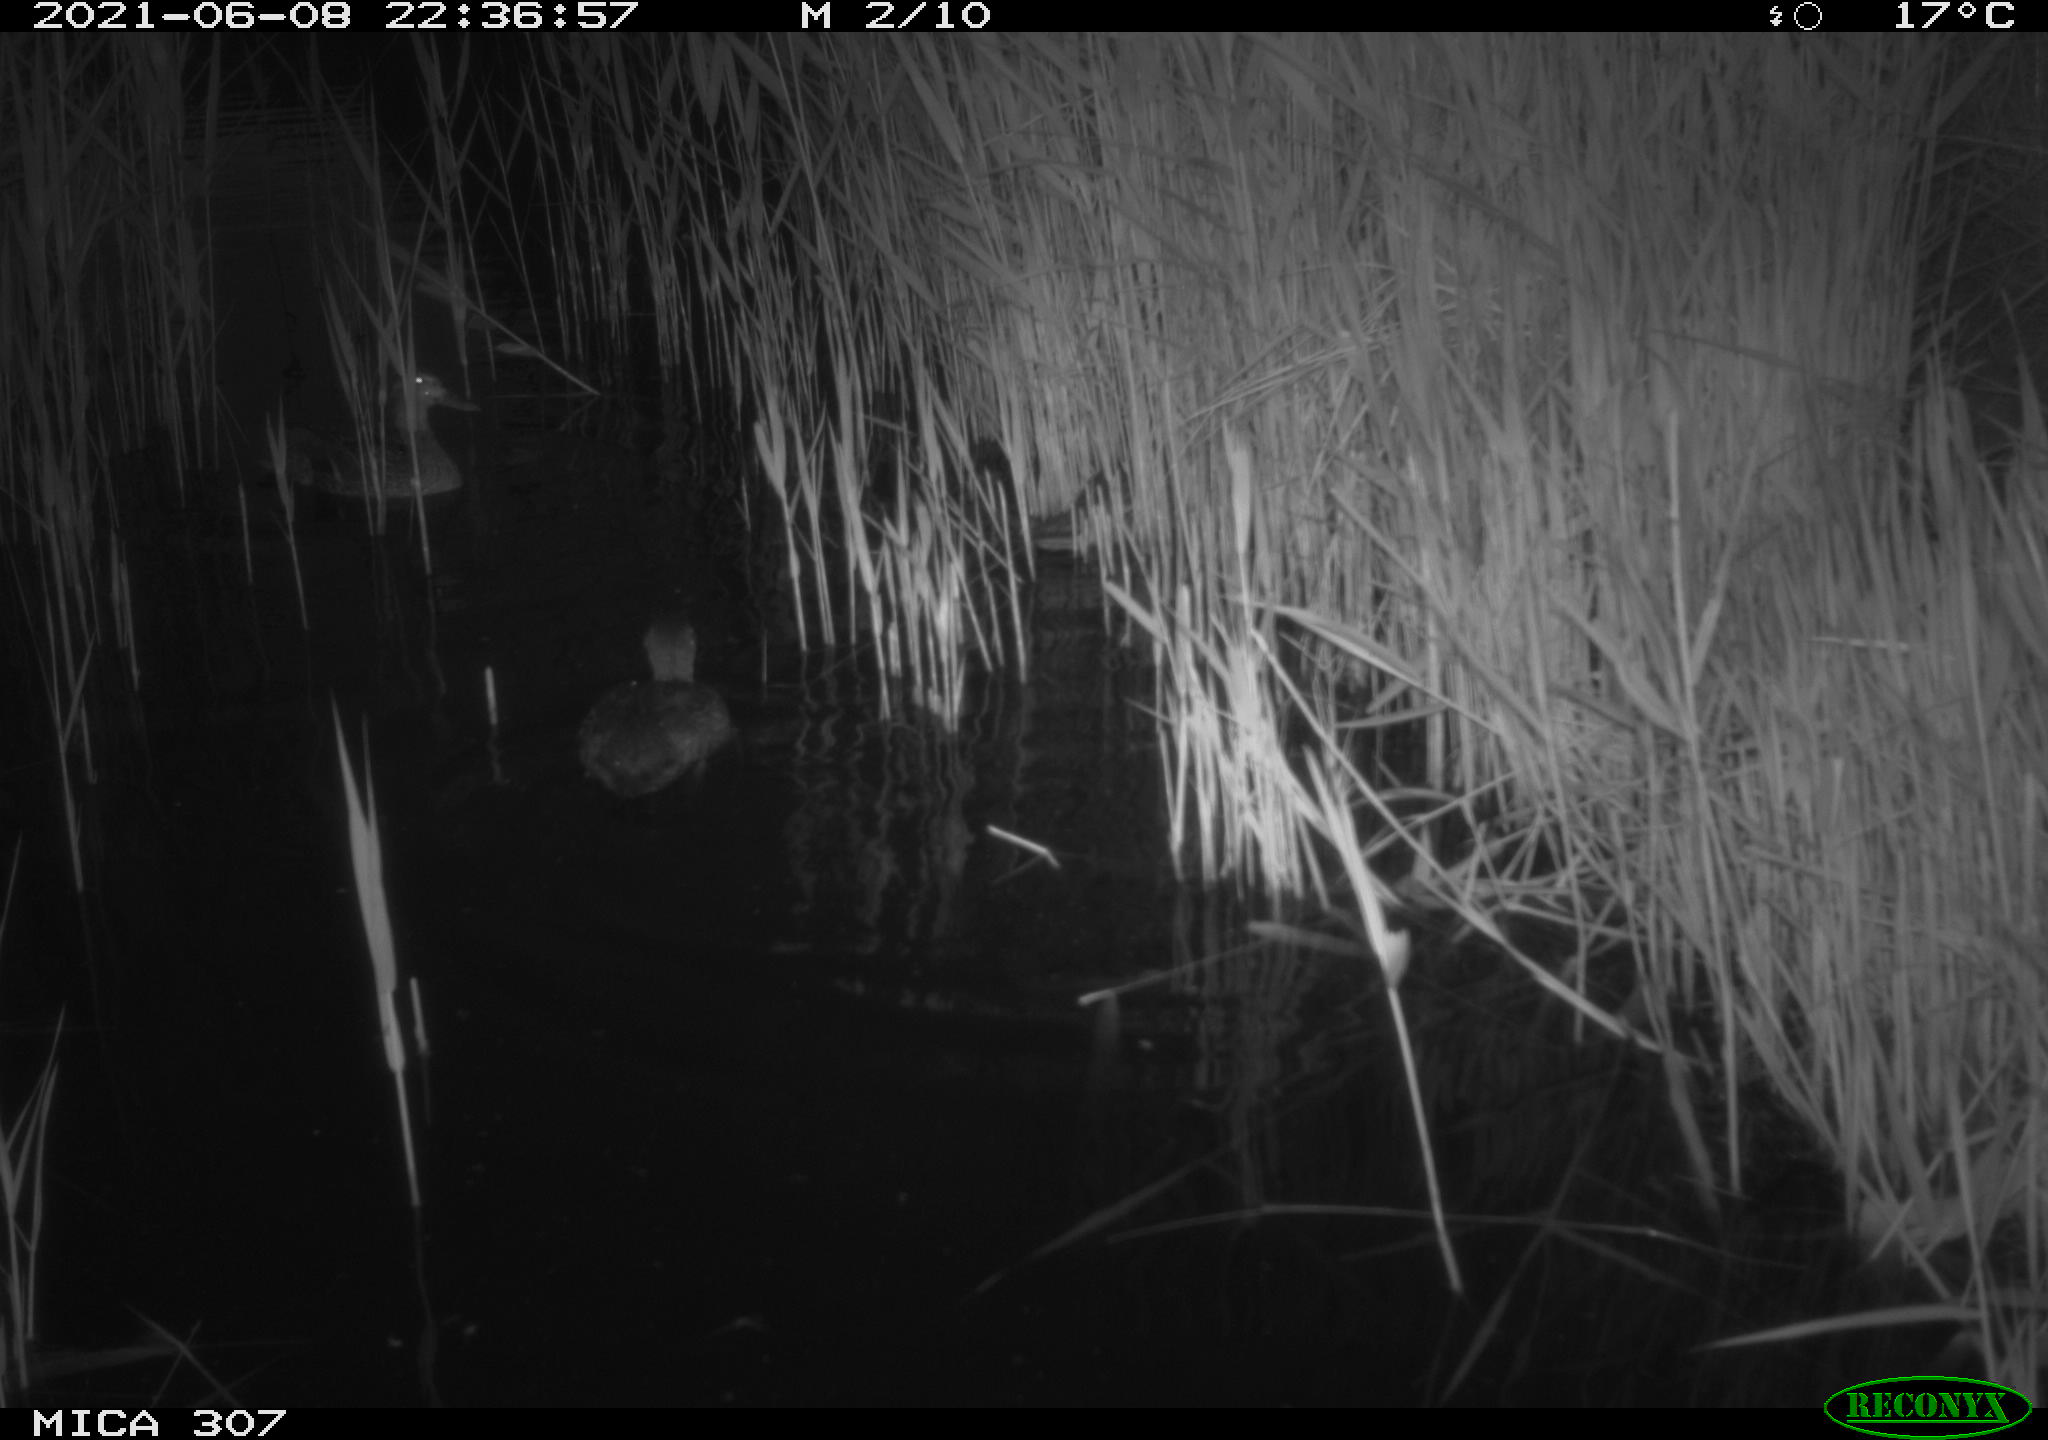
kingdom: Animalia
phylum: Chordata
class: Aves
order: Anseriformes
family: Anatidae
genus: Anas
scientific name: Anas platyrhynchos
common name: Mallard
